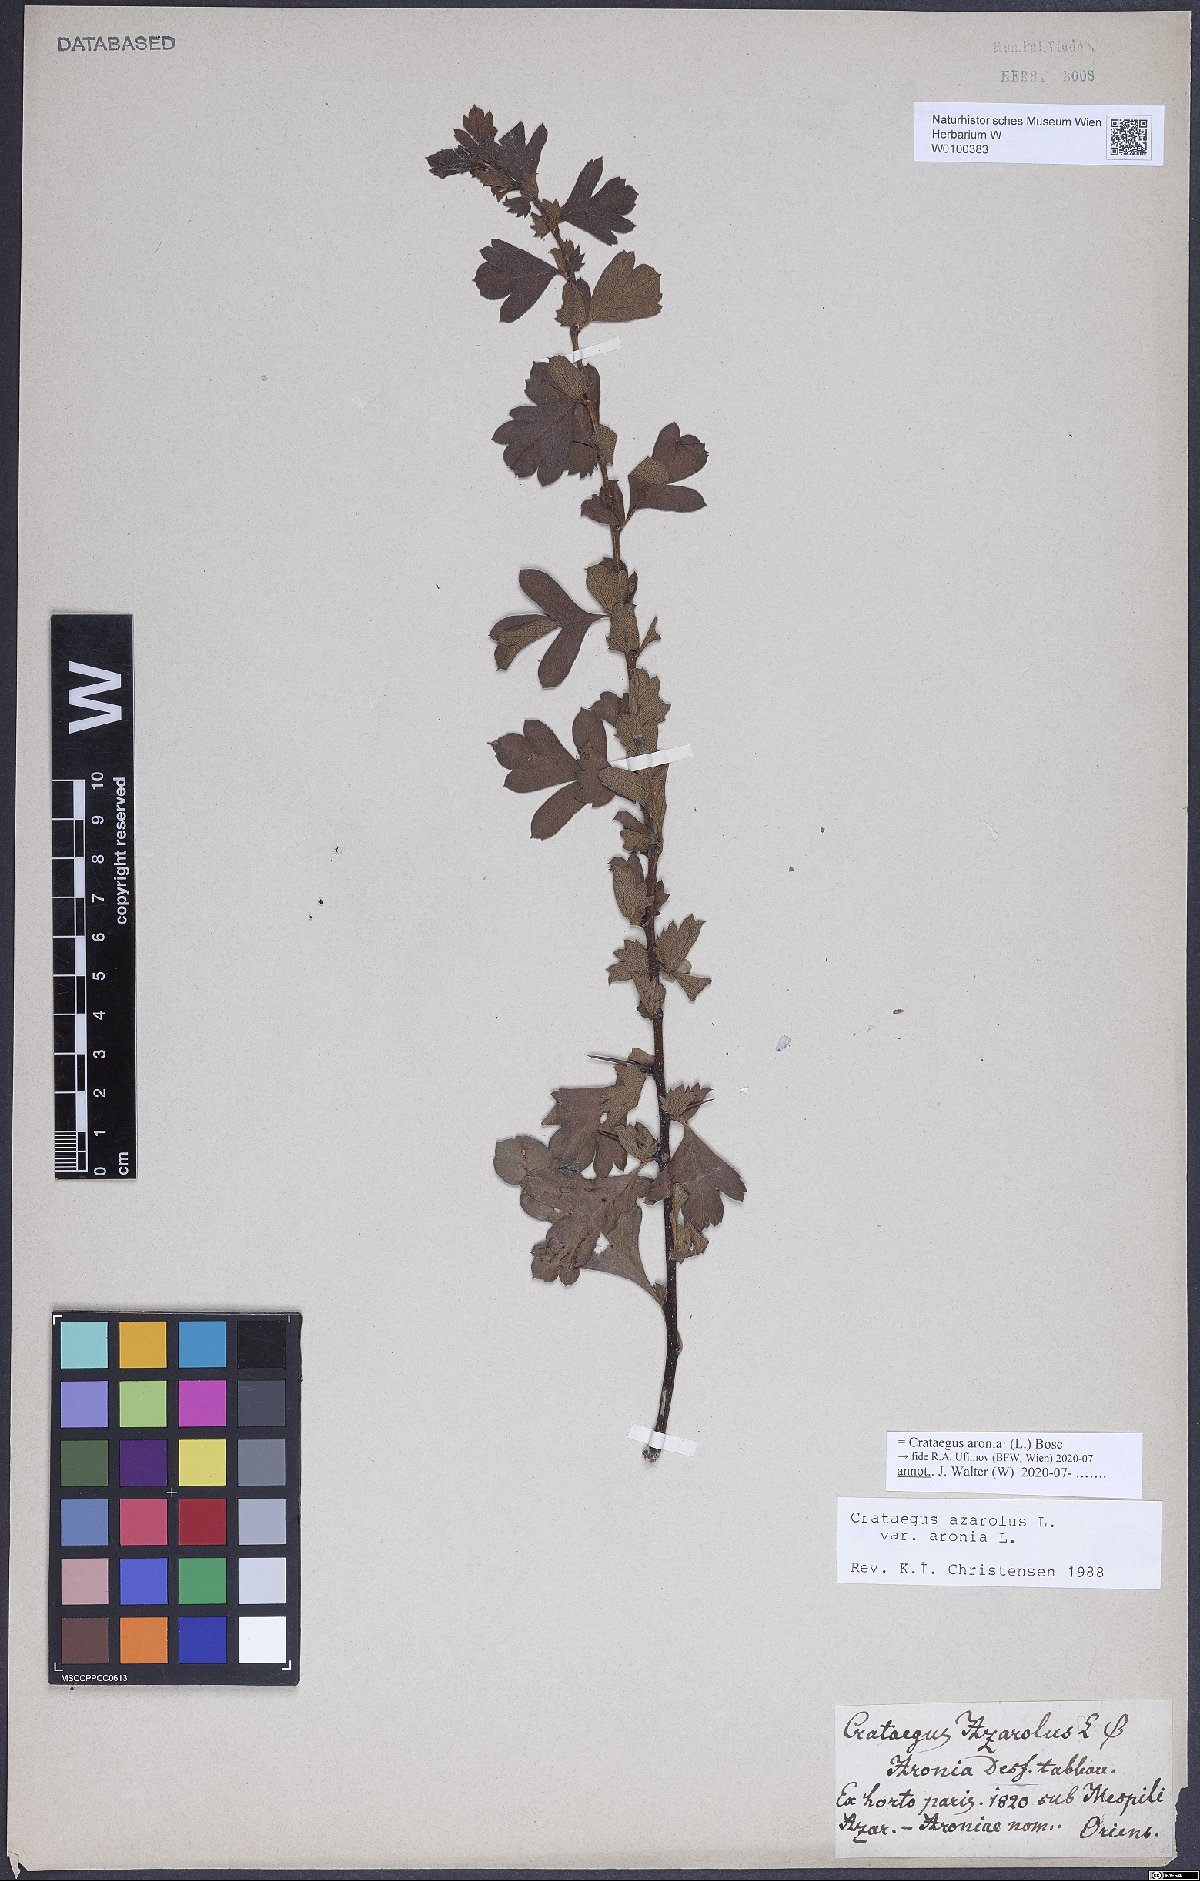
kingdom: Plantae
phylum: Tracheophyta
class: Magnoliopsida
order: Rosales
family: Rosaceae
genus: Crataegus
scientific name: Crataegus azarolus
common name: Azarole
